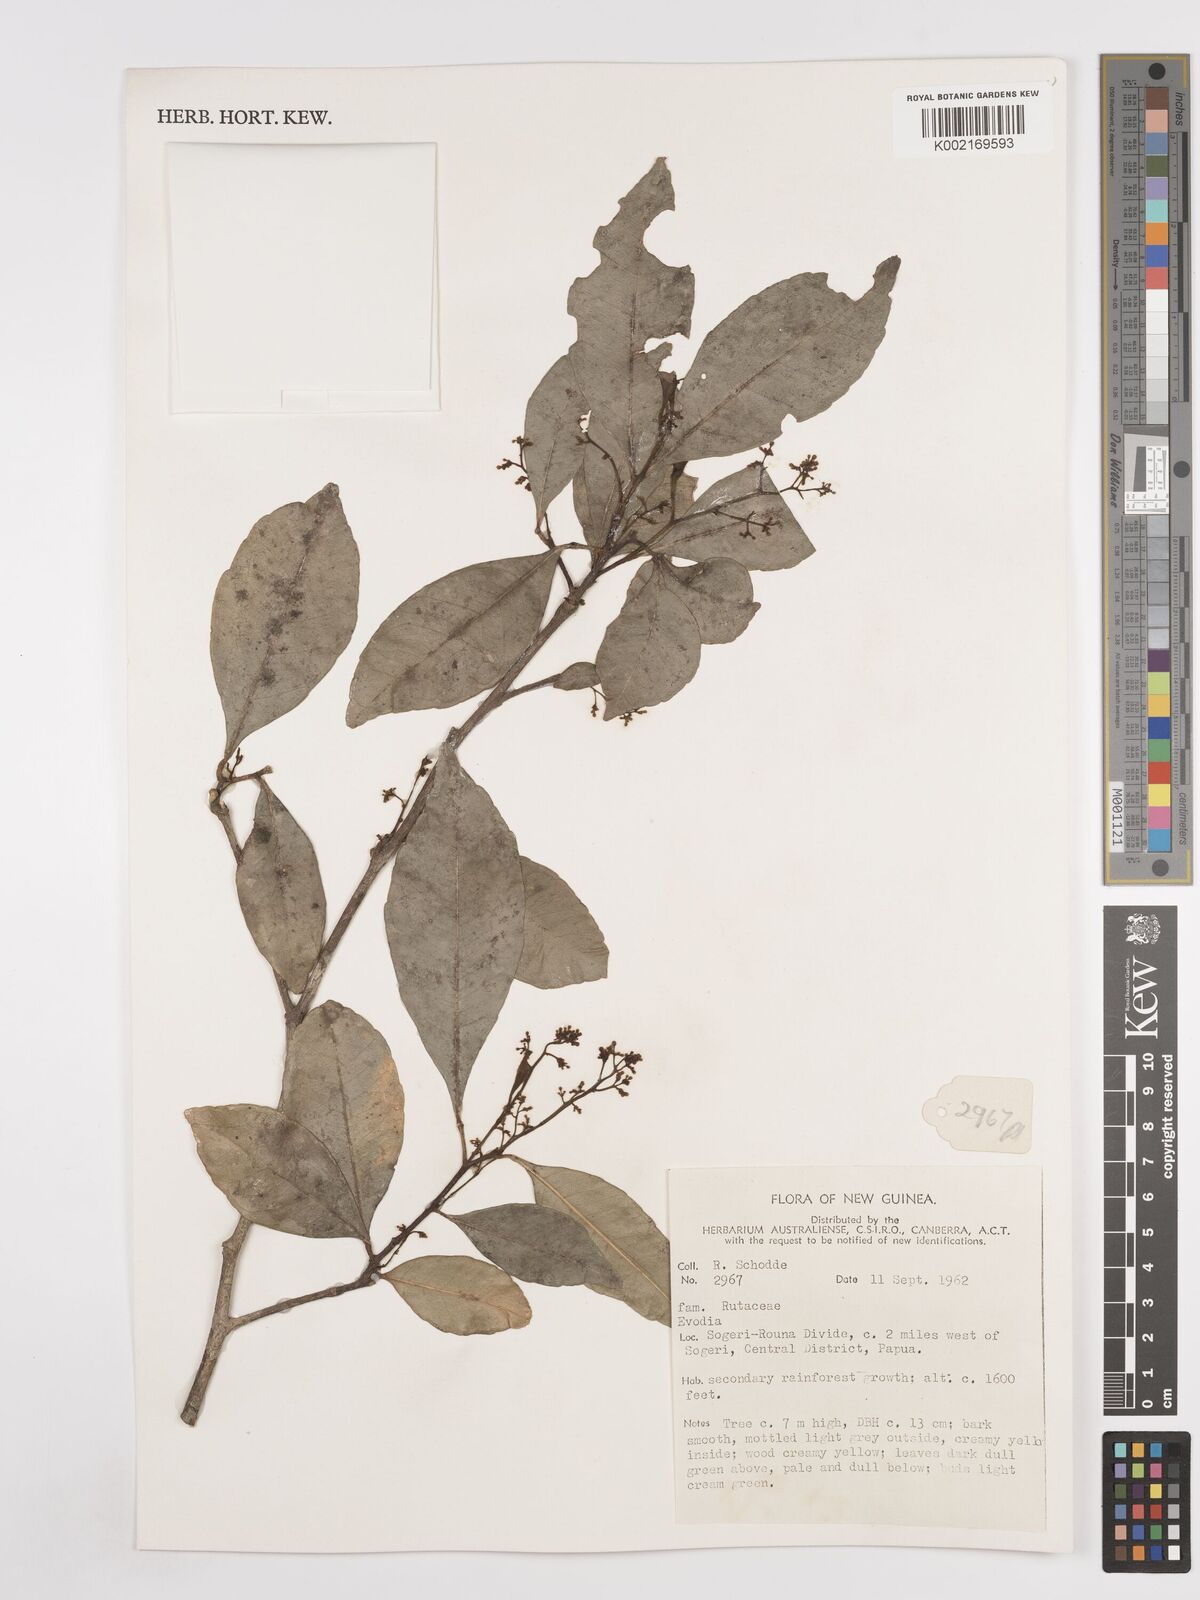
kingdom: Plantae
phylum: Tracheophyta
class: Magnoliopsida
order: Sapindales
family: Rutaceae
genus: Euodia
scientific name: Euodia
